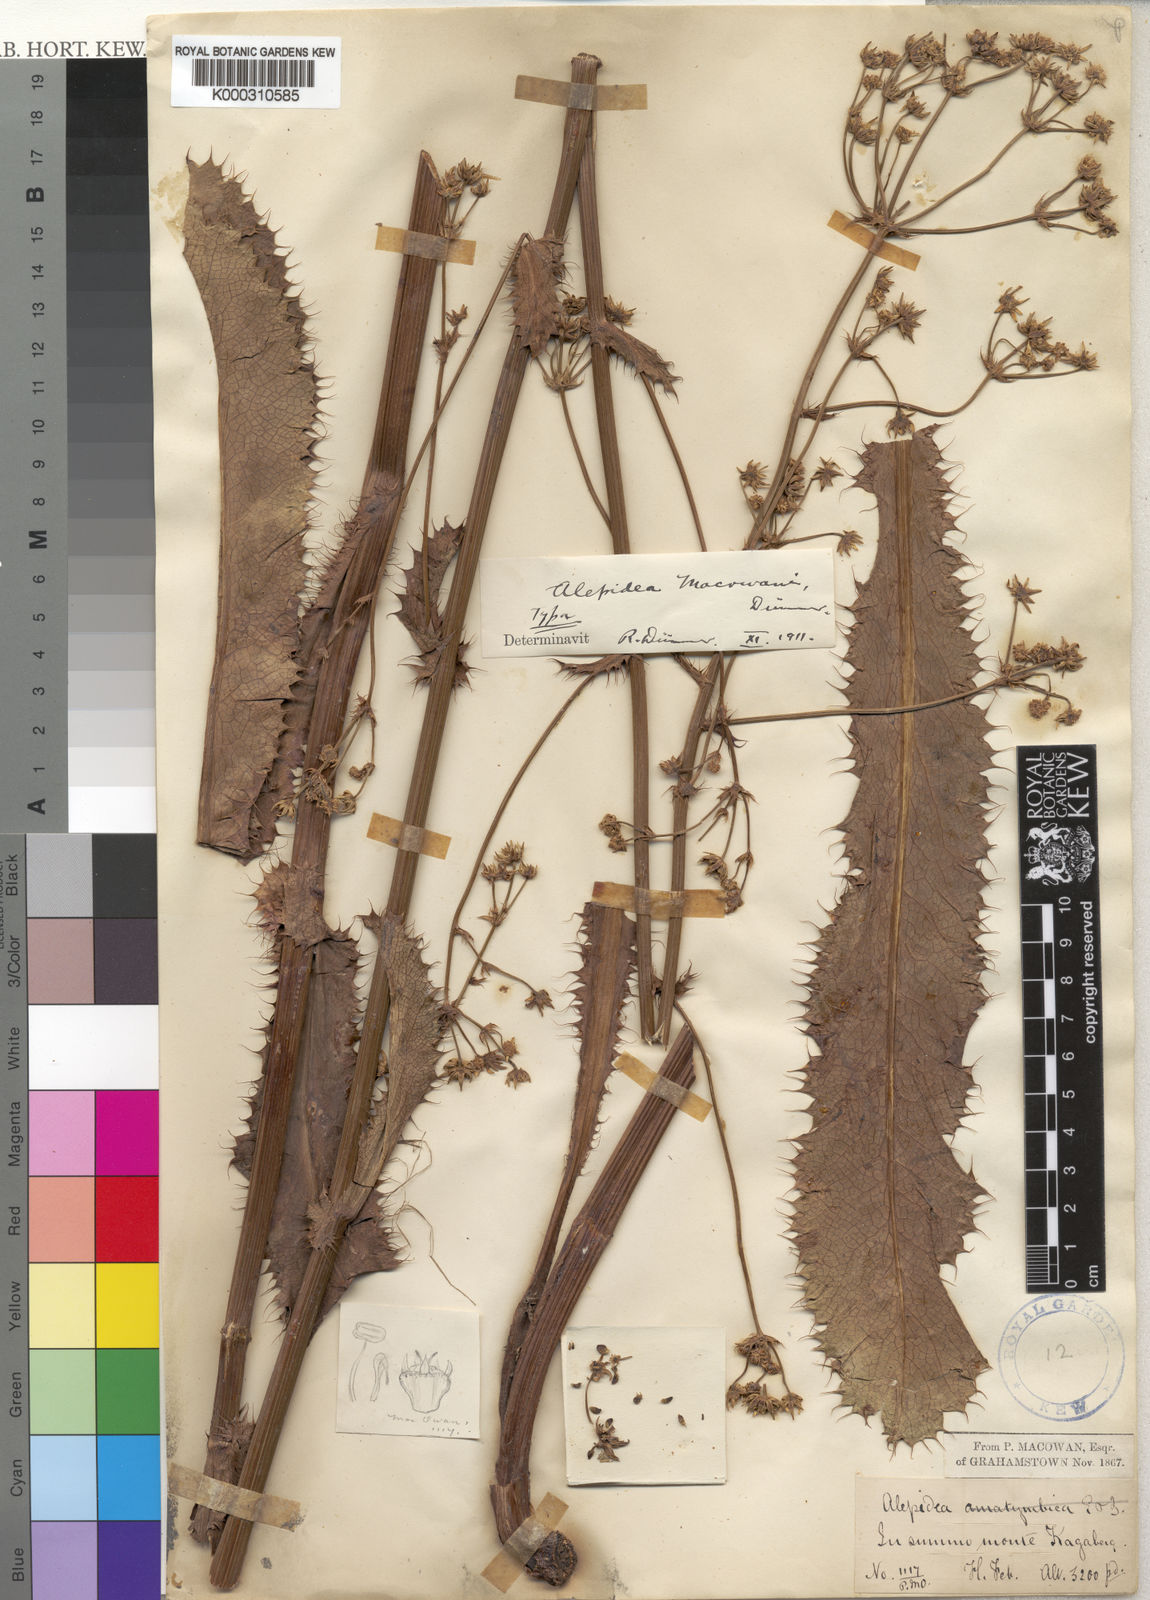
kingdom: Plantae
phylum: Tracheophyta
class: Magnoliopsida
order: Apiales
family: Apiaceae
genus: Alepidea
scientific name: Alepidea macowanii
